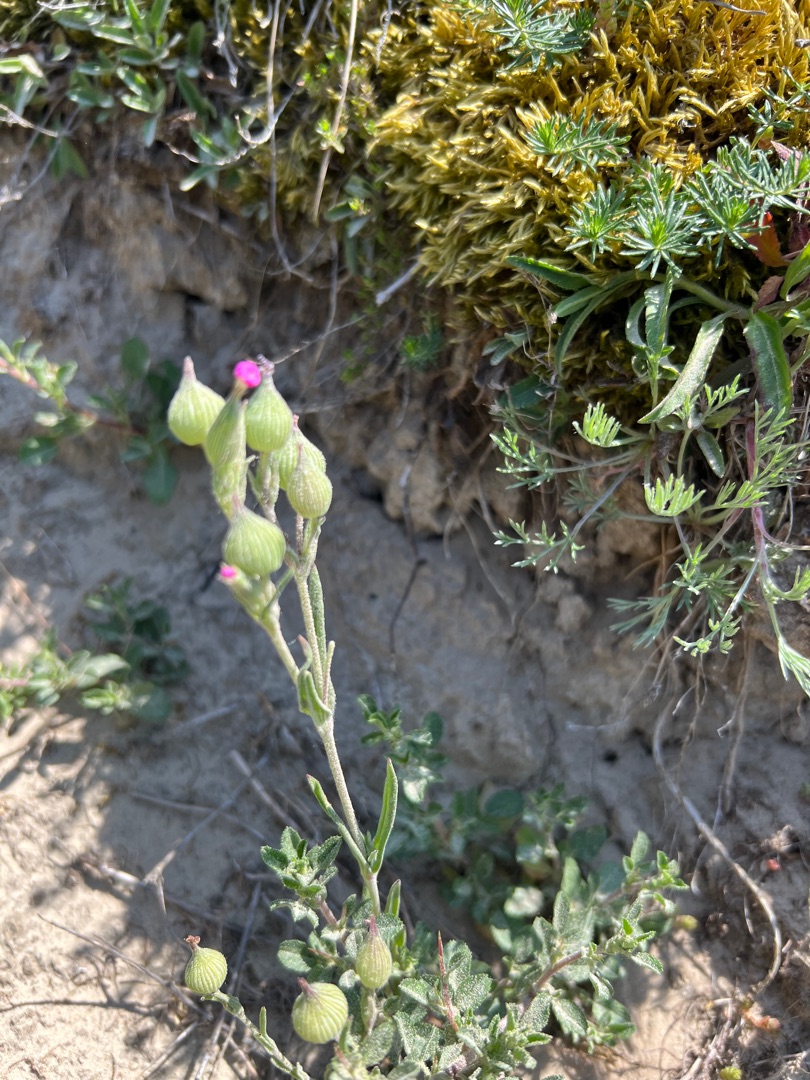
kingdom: Plantae
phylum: Tracheophyta
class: Magnoliopsida
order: Caryophyllales
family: Caryophyllaceae
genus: Silene
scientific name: Silene conica
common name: Kegle-limurt
